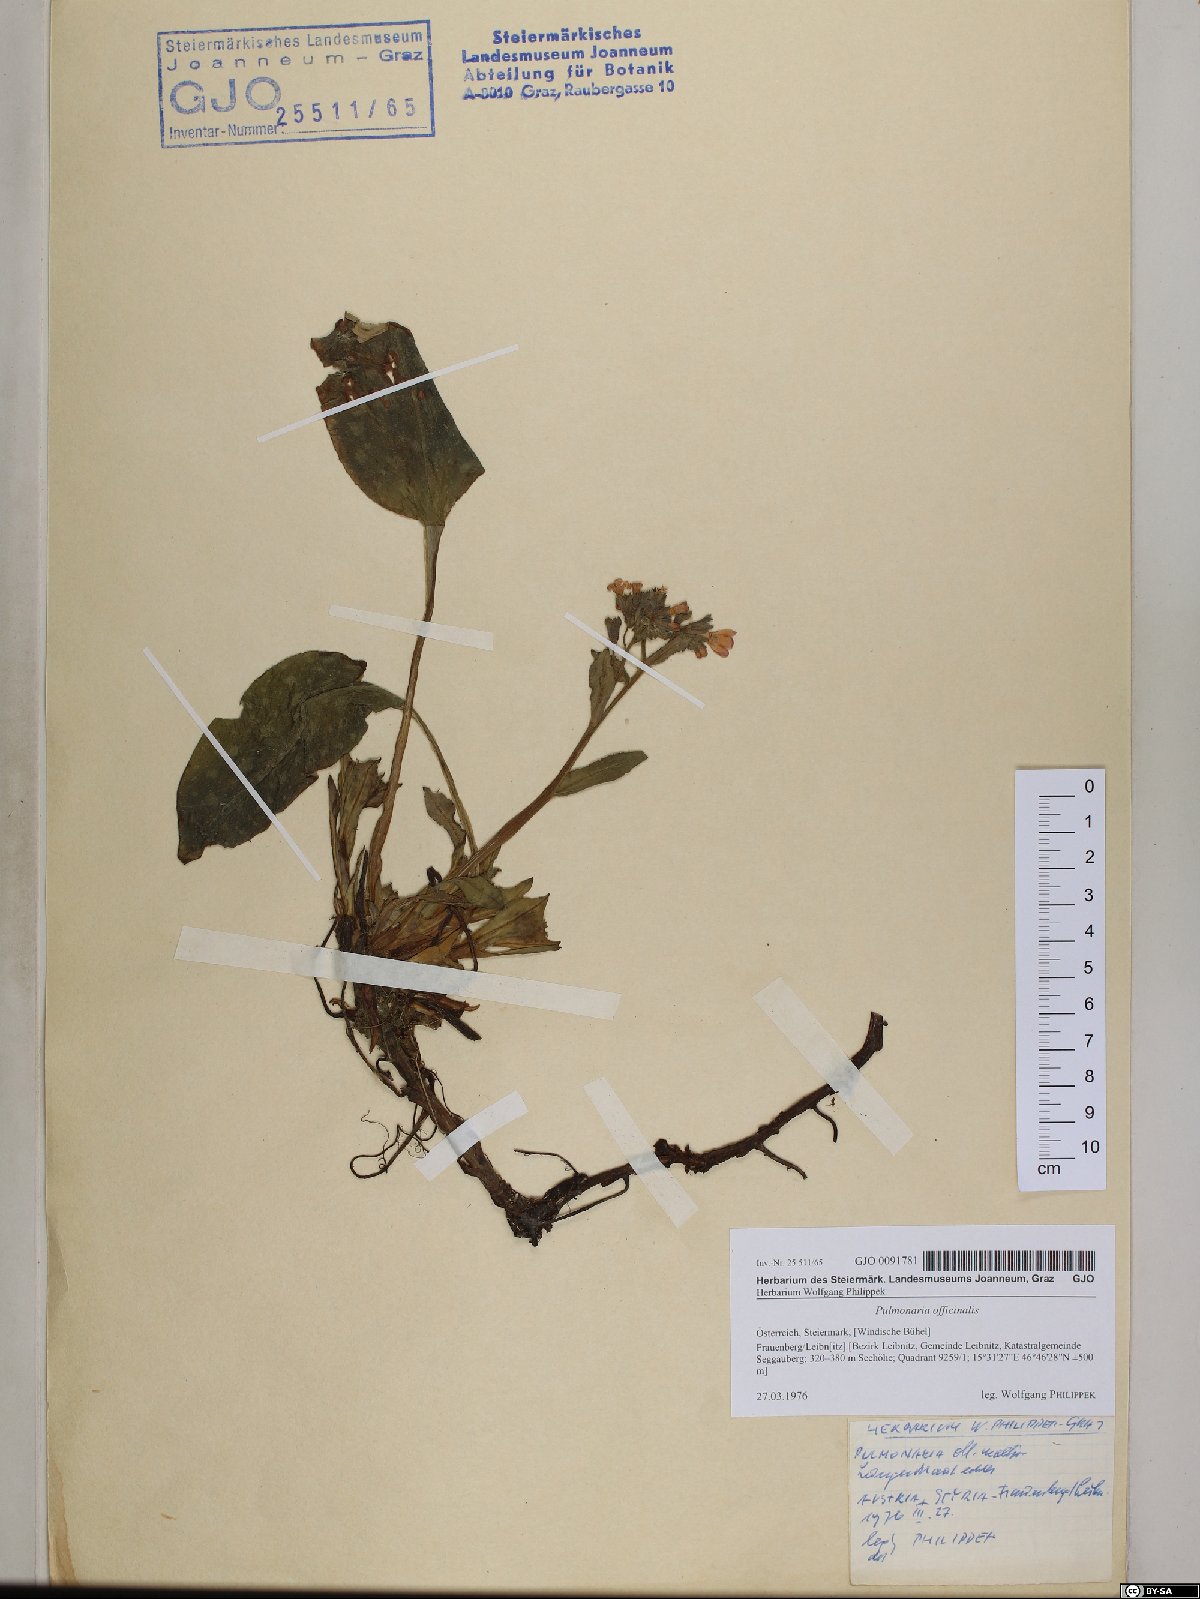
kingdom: Plantae
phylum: Tracheophyta
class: Magnoliopsida
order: Boraginales
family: Boraginaceae
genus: Pulmonaria
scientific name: Pulmonaria officinalis
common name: Lungwort
